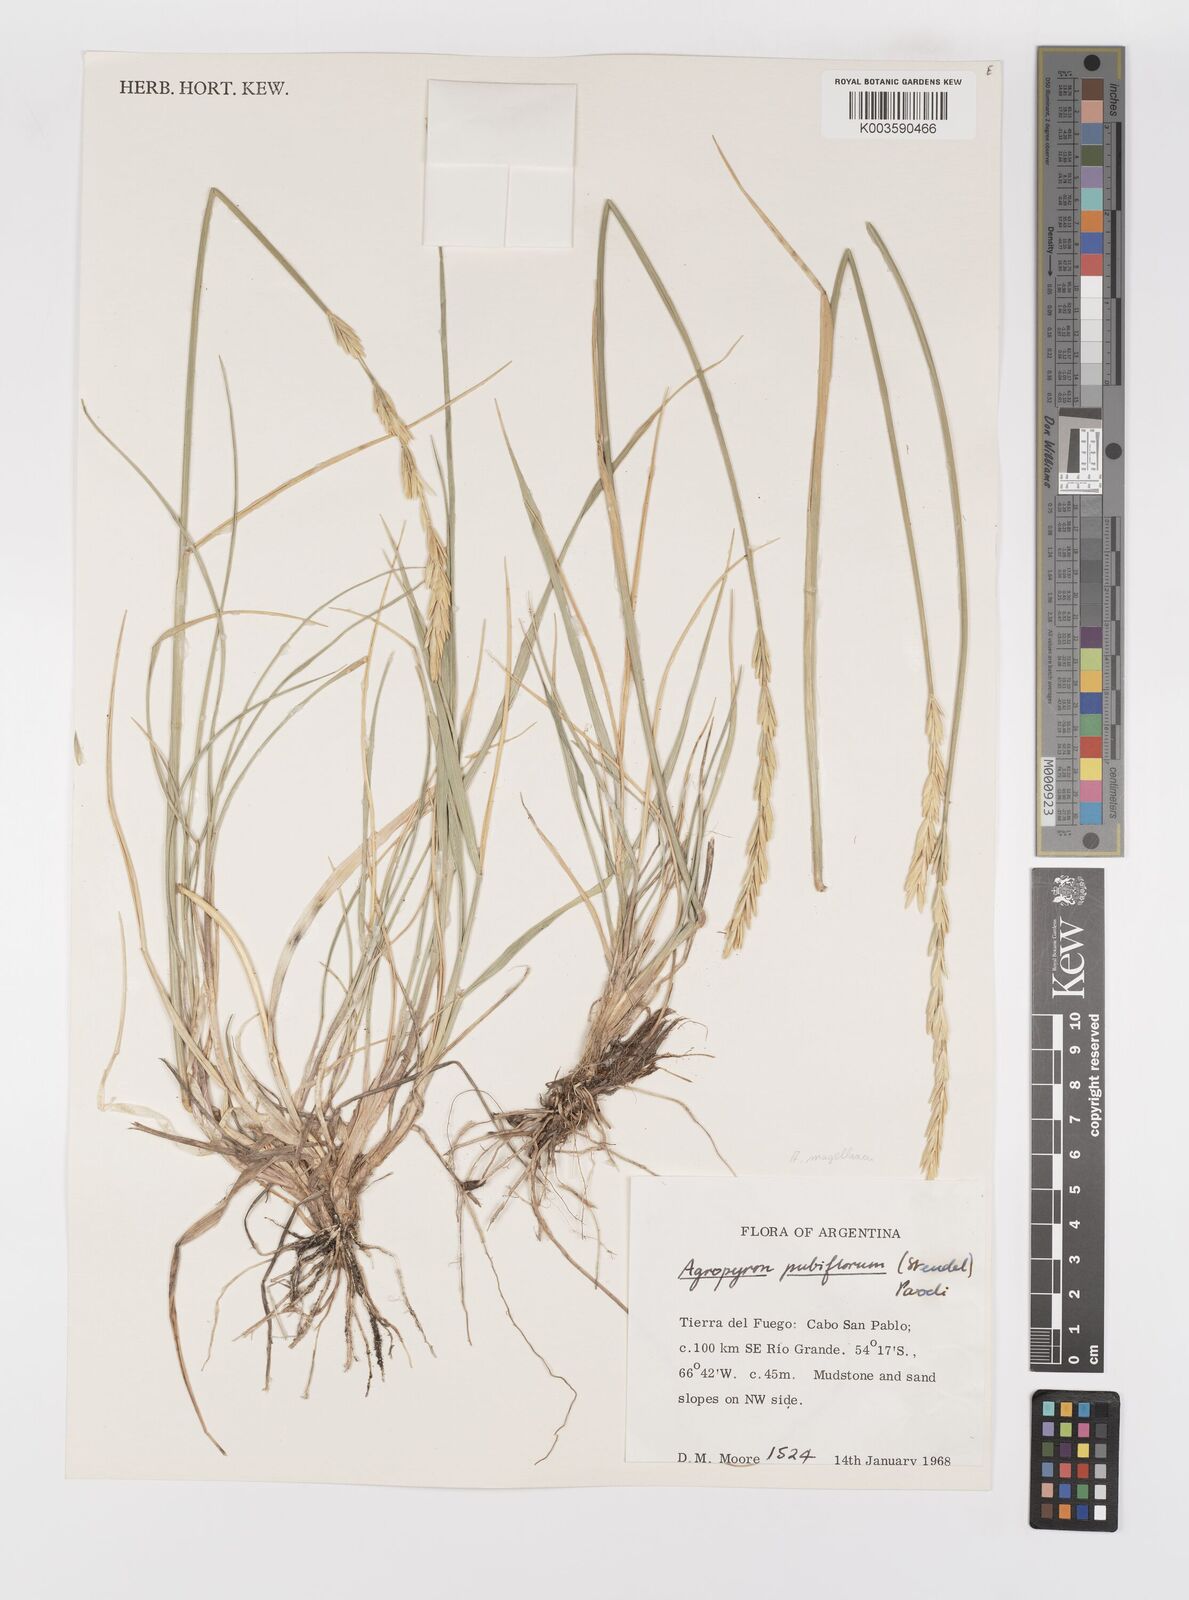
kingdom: Plantae
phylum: Tracheophyta
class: Liliopsida
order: Poales
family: Poaceae
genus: Elymus
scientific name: Elymus magellanicus
